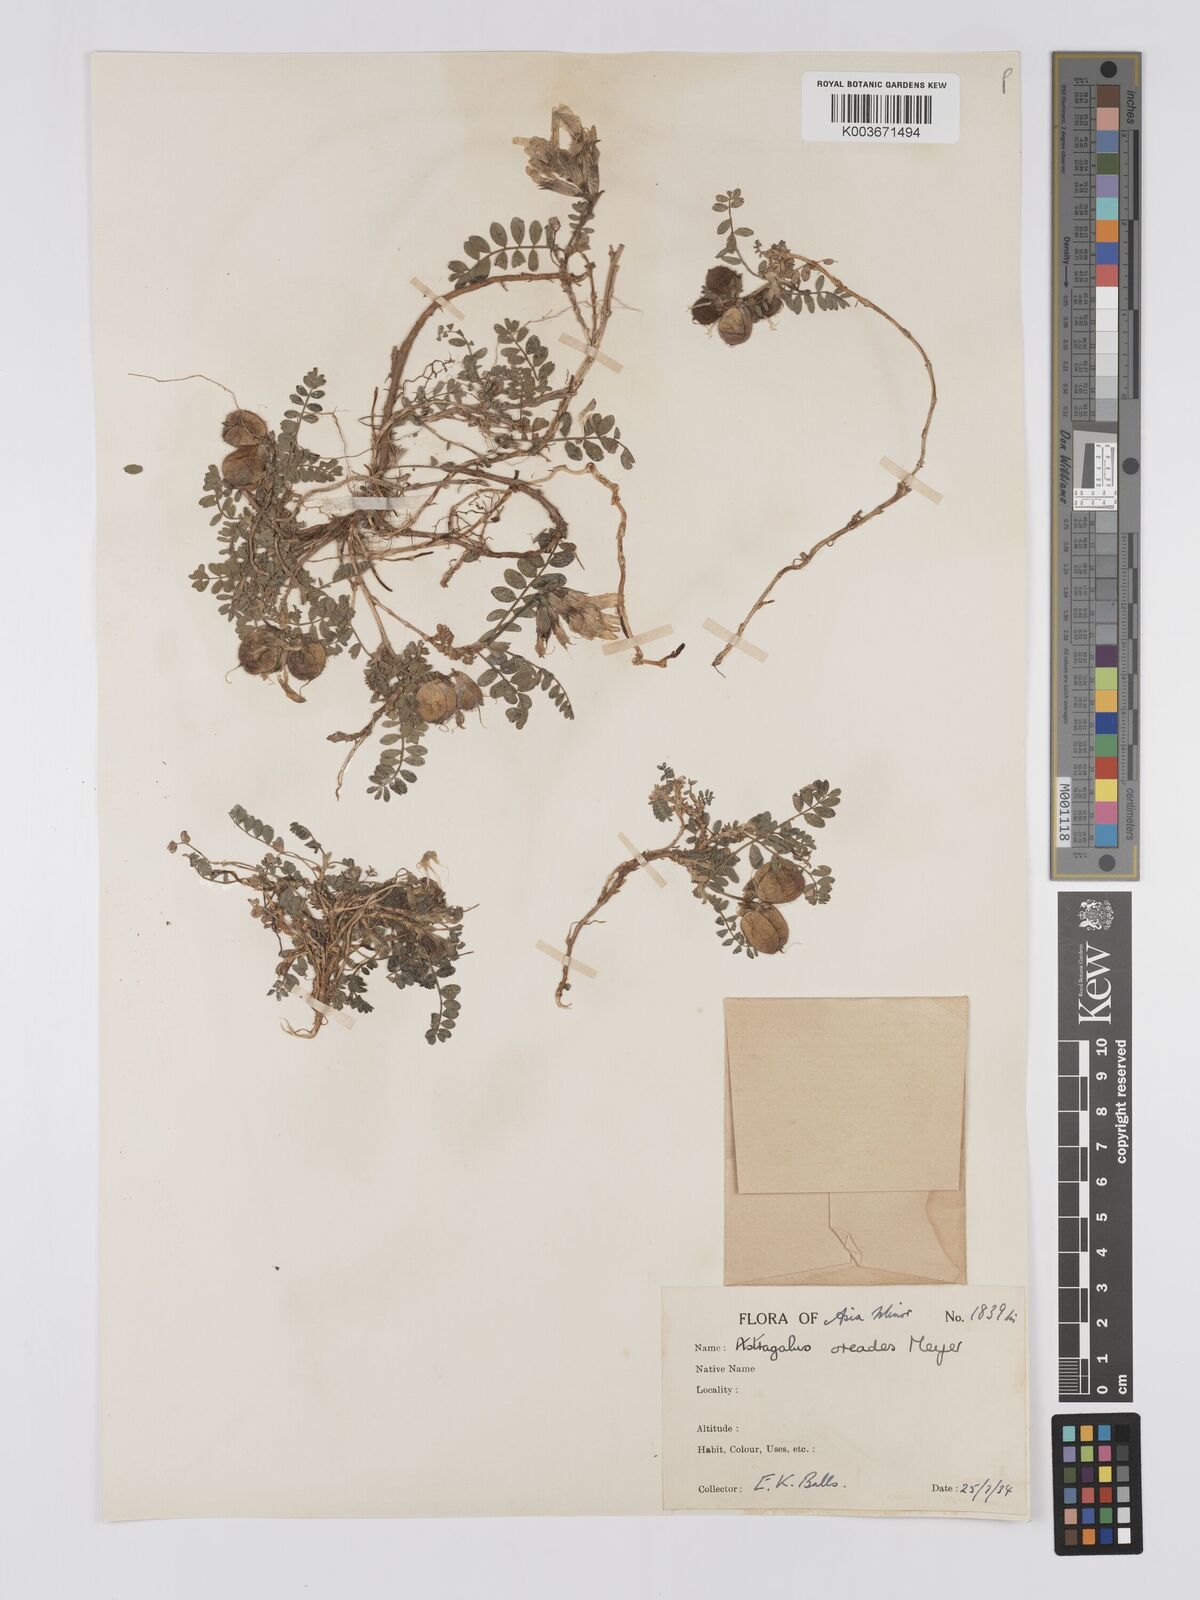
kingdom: Plantae
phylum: Tracheophyta
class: Magnoliopsida
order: Fabales
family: Fabaceae
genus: Astragalus
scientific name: Astragalus oreades
